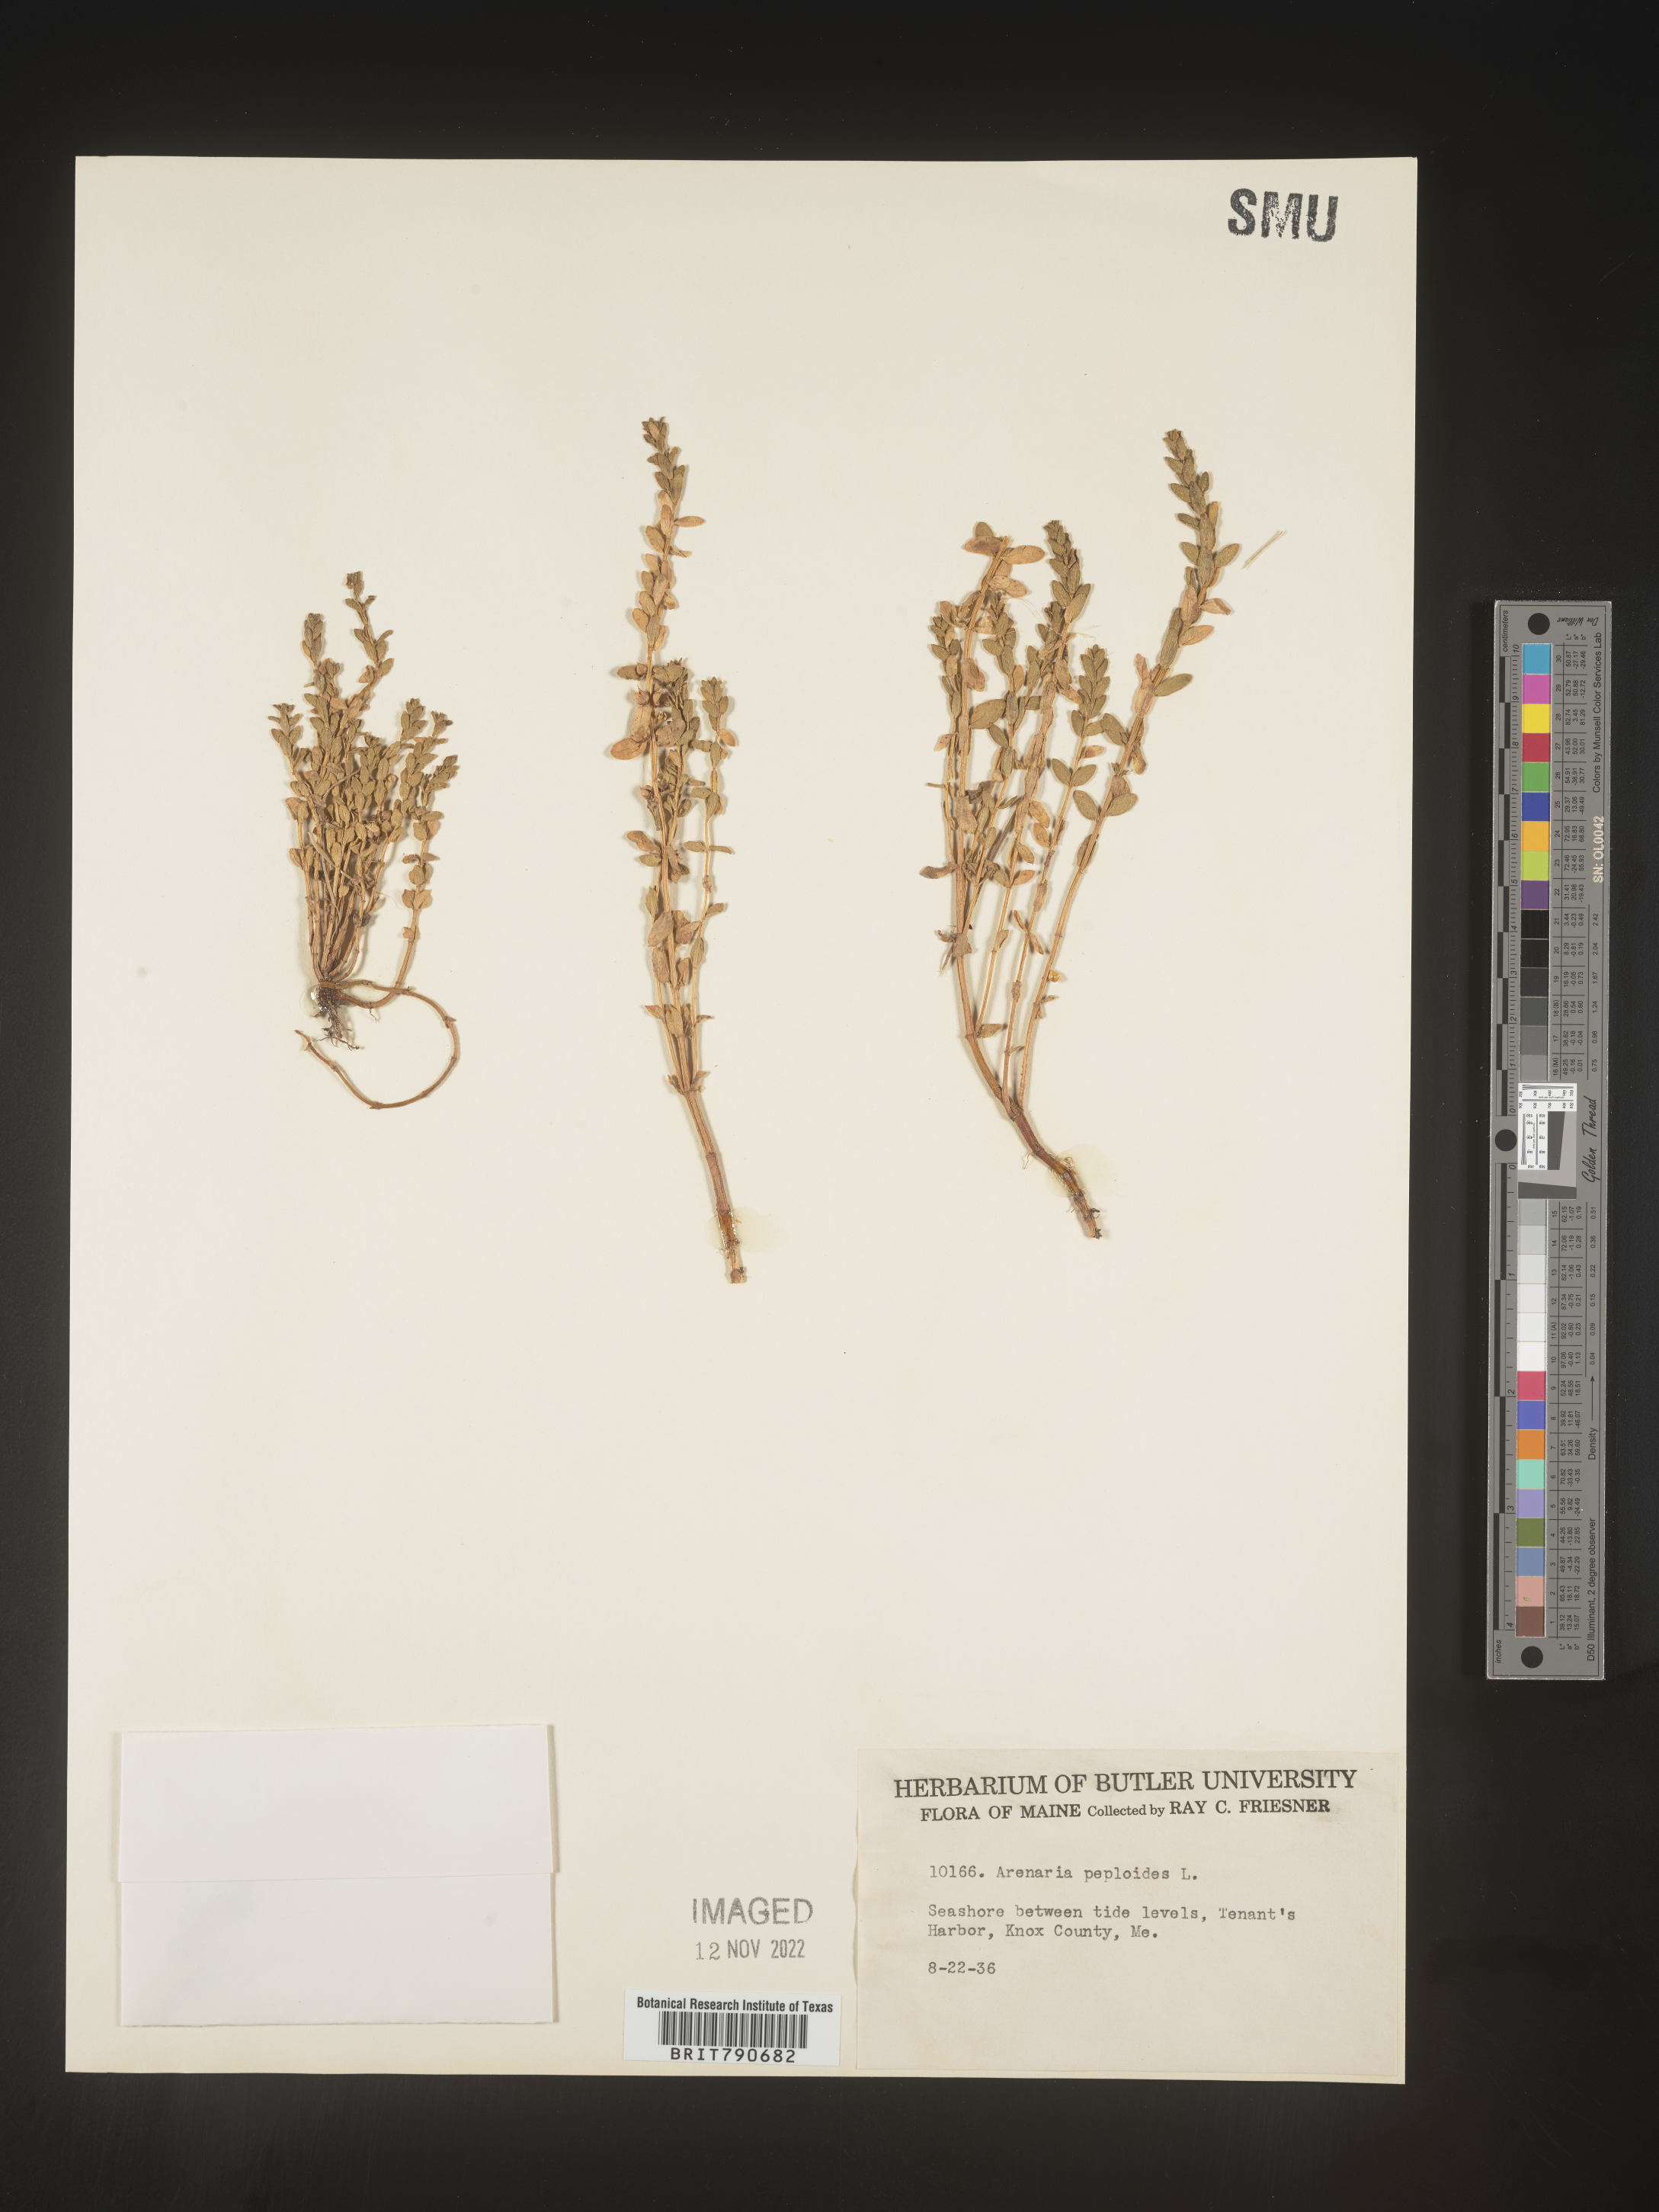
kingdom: Plantae
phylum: Tracheophyta
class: Magnoliopsida
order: Malvales
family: Malvaceae
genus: Clappertonia
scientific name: Clappertonia
